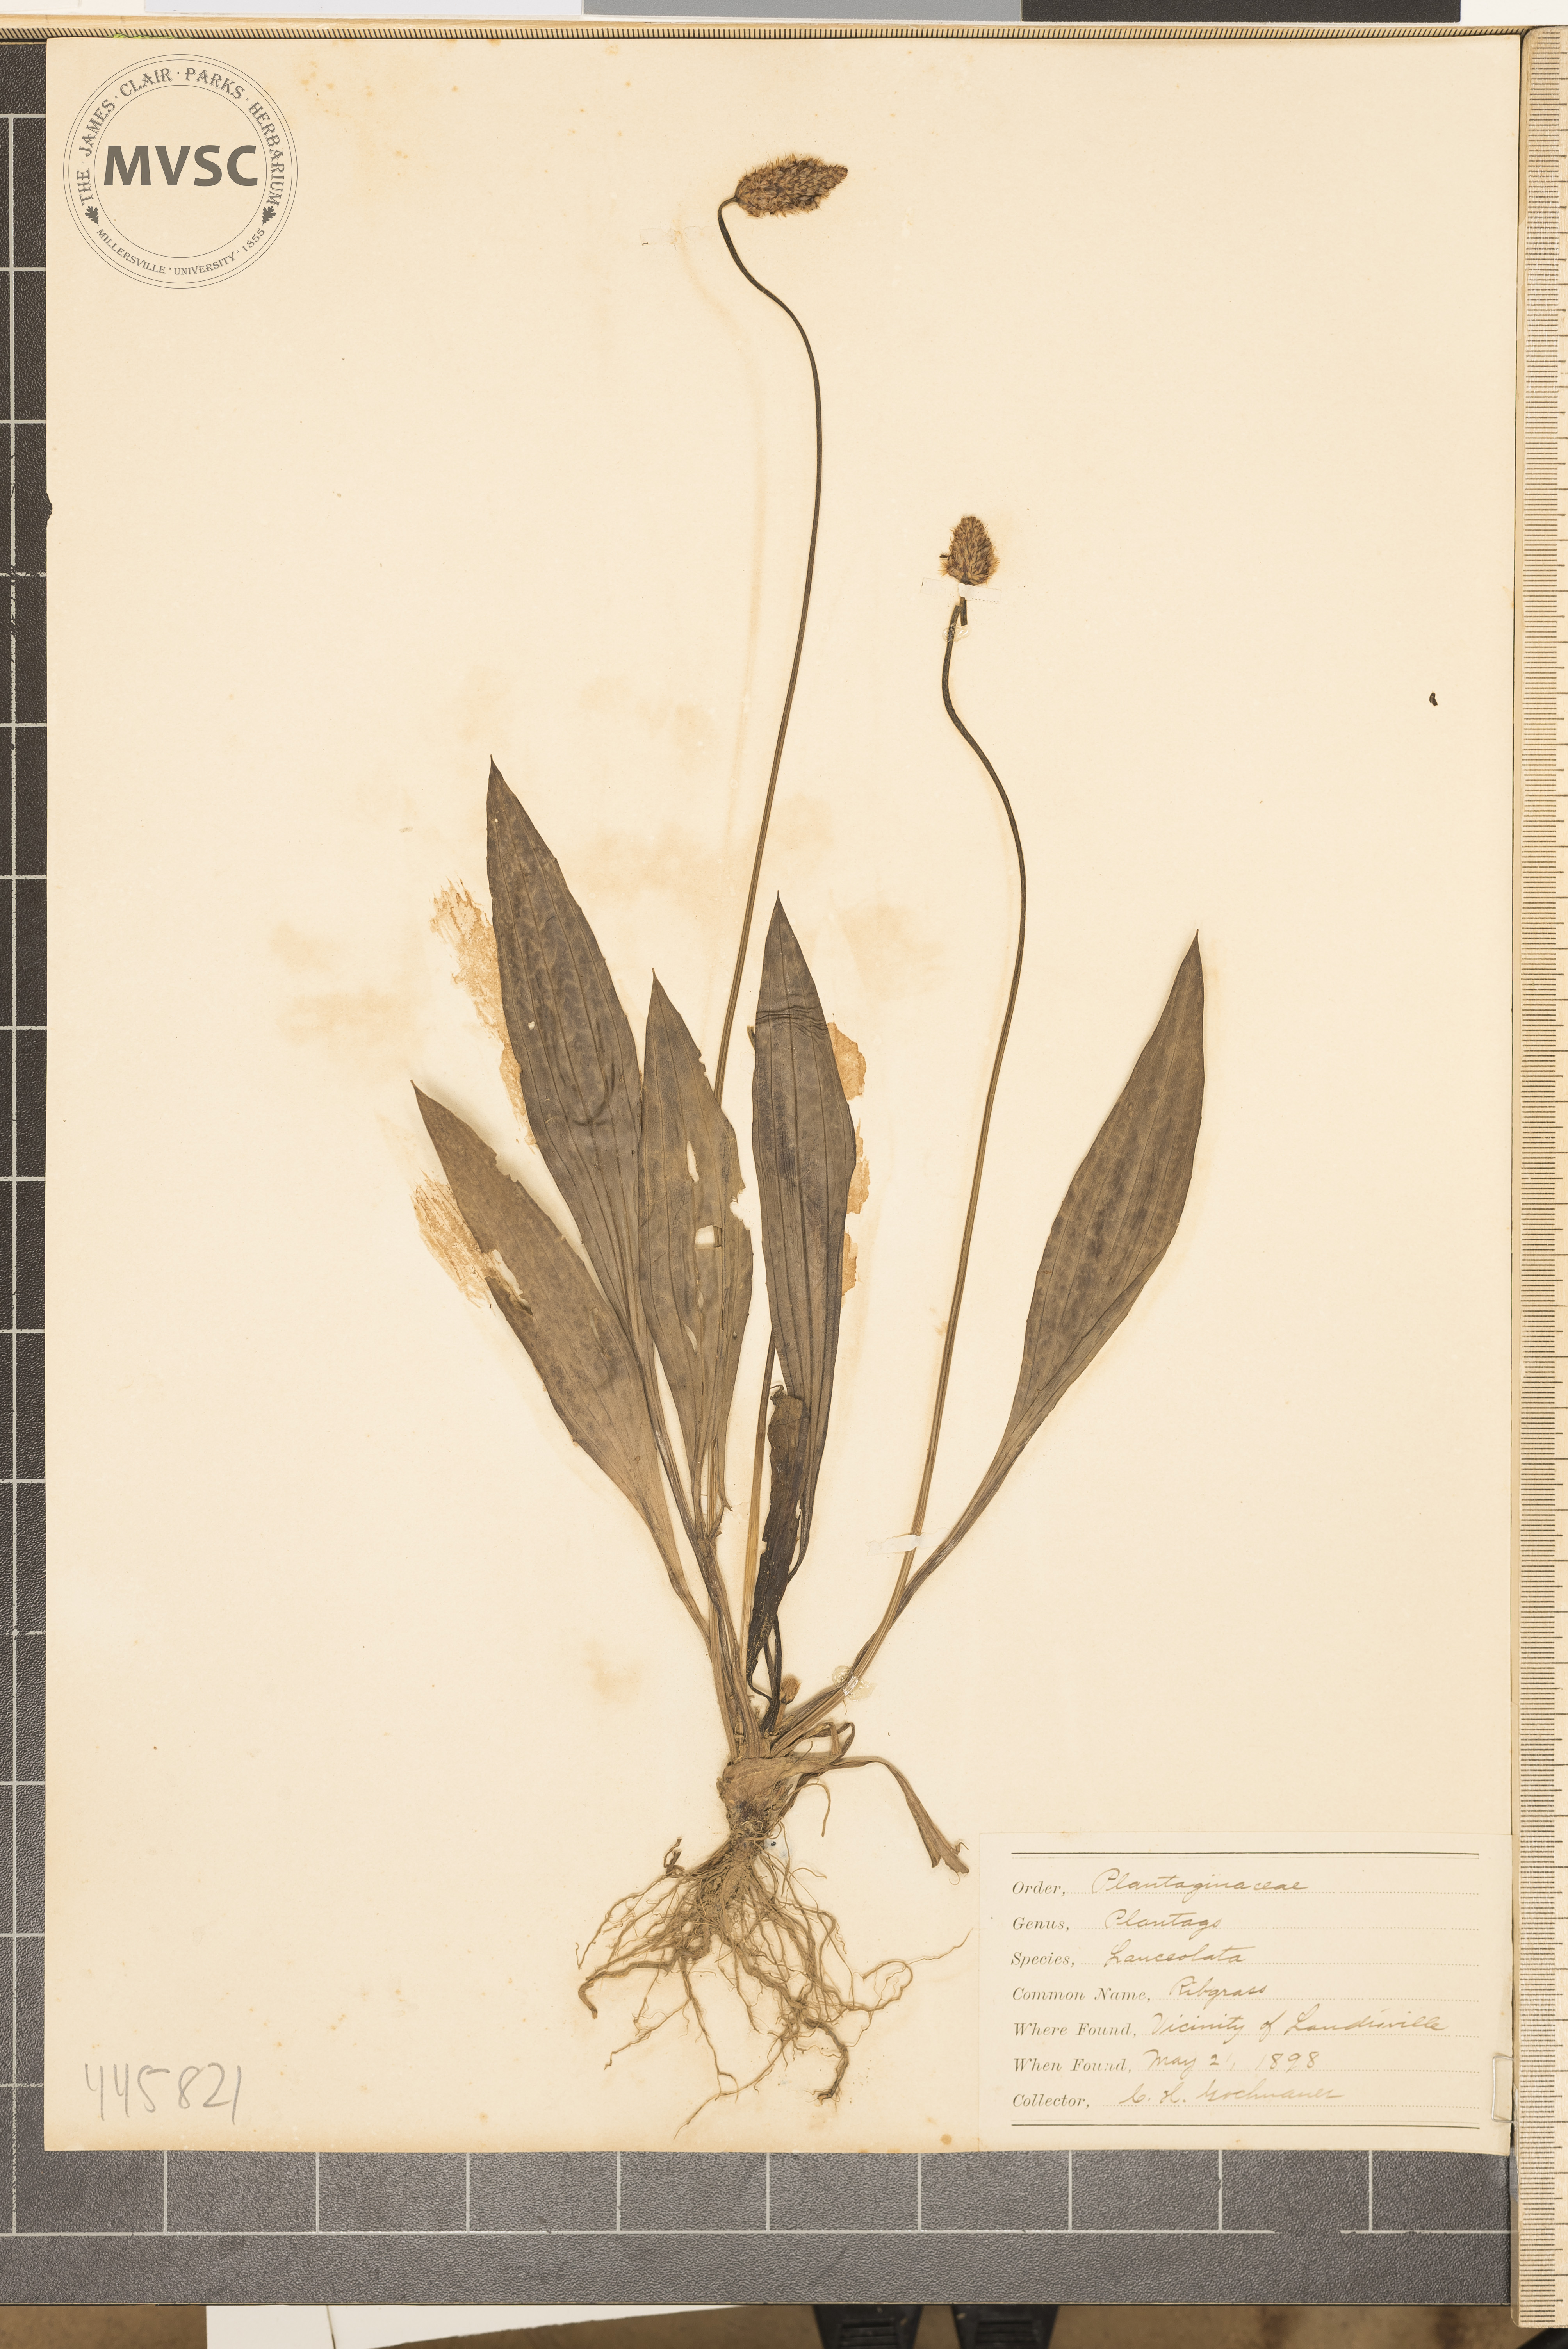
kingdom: Plantae
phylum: Tracheophyta
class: Magnoliopsida
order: Lamiales
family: Plantaginaceae
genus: Plantago
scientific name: Plantago lanceolata
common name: Ribgrass
